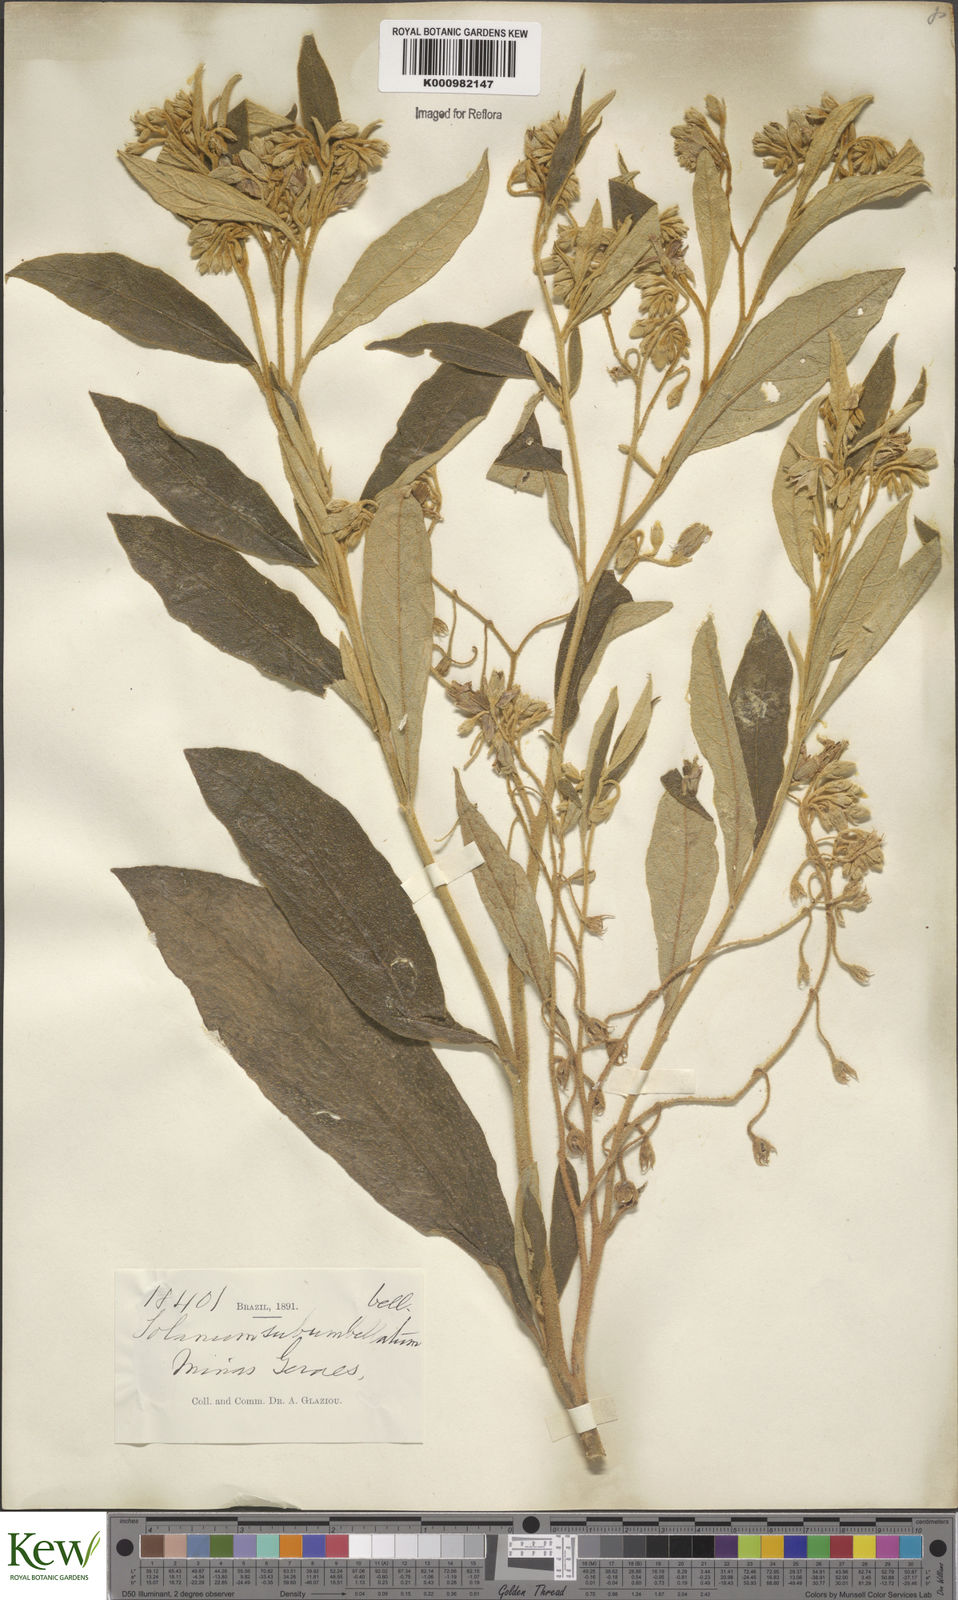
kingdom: Plantae
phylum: Tracheophyta
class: Magnoliopsida
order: Solanales
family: Solanaceae
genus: Solanum
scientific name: Solanum subumbellatum
